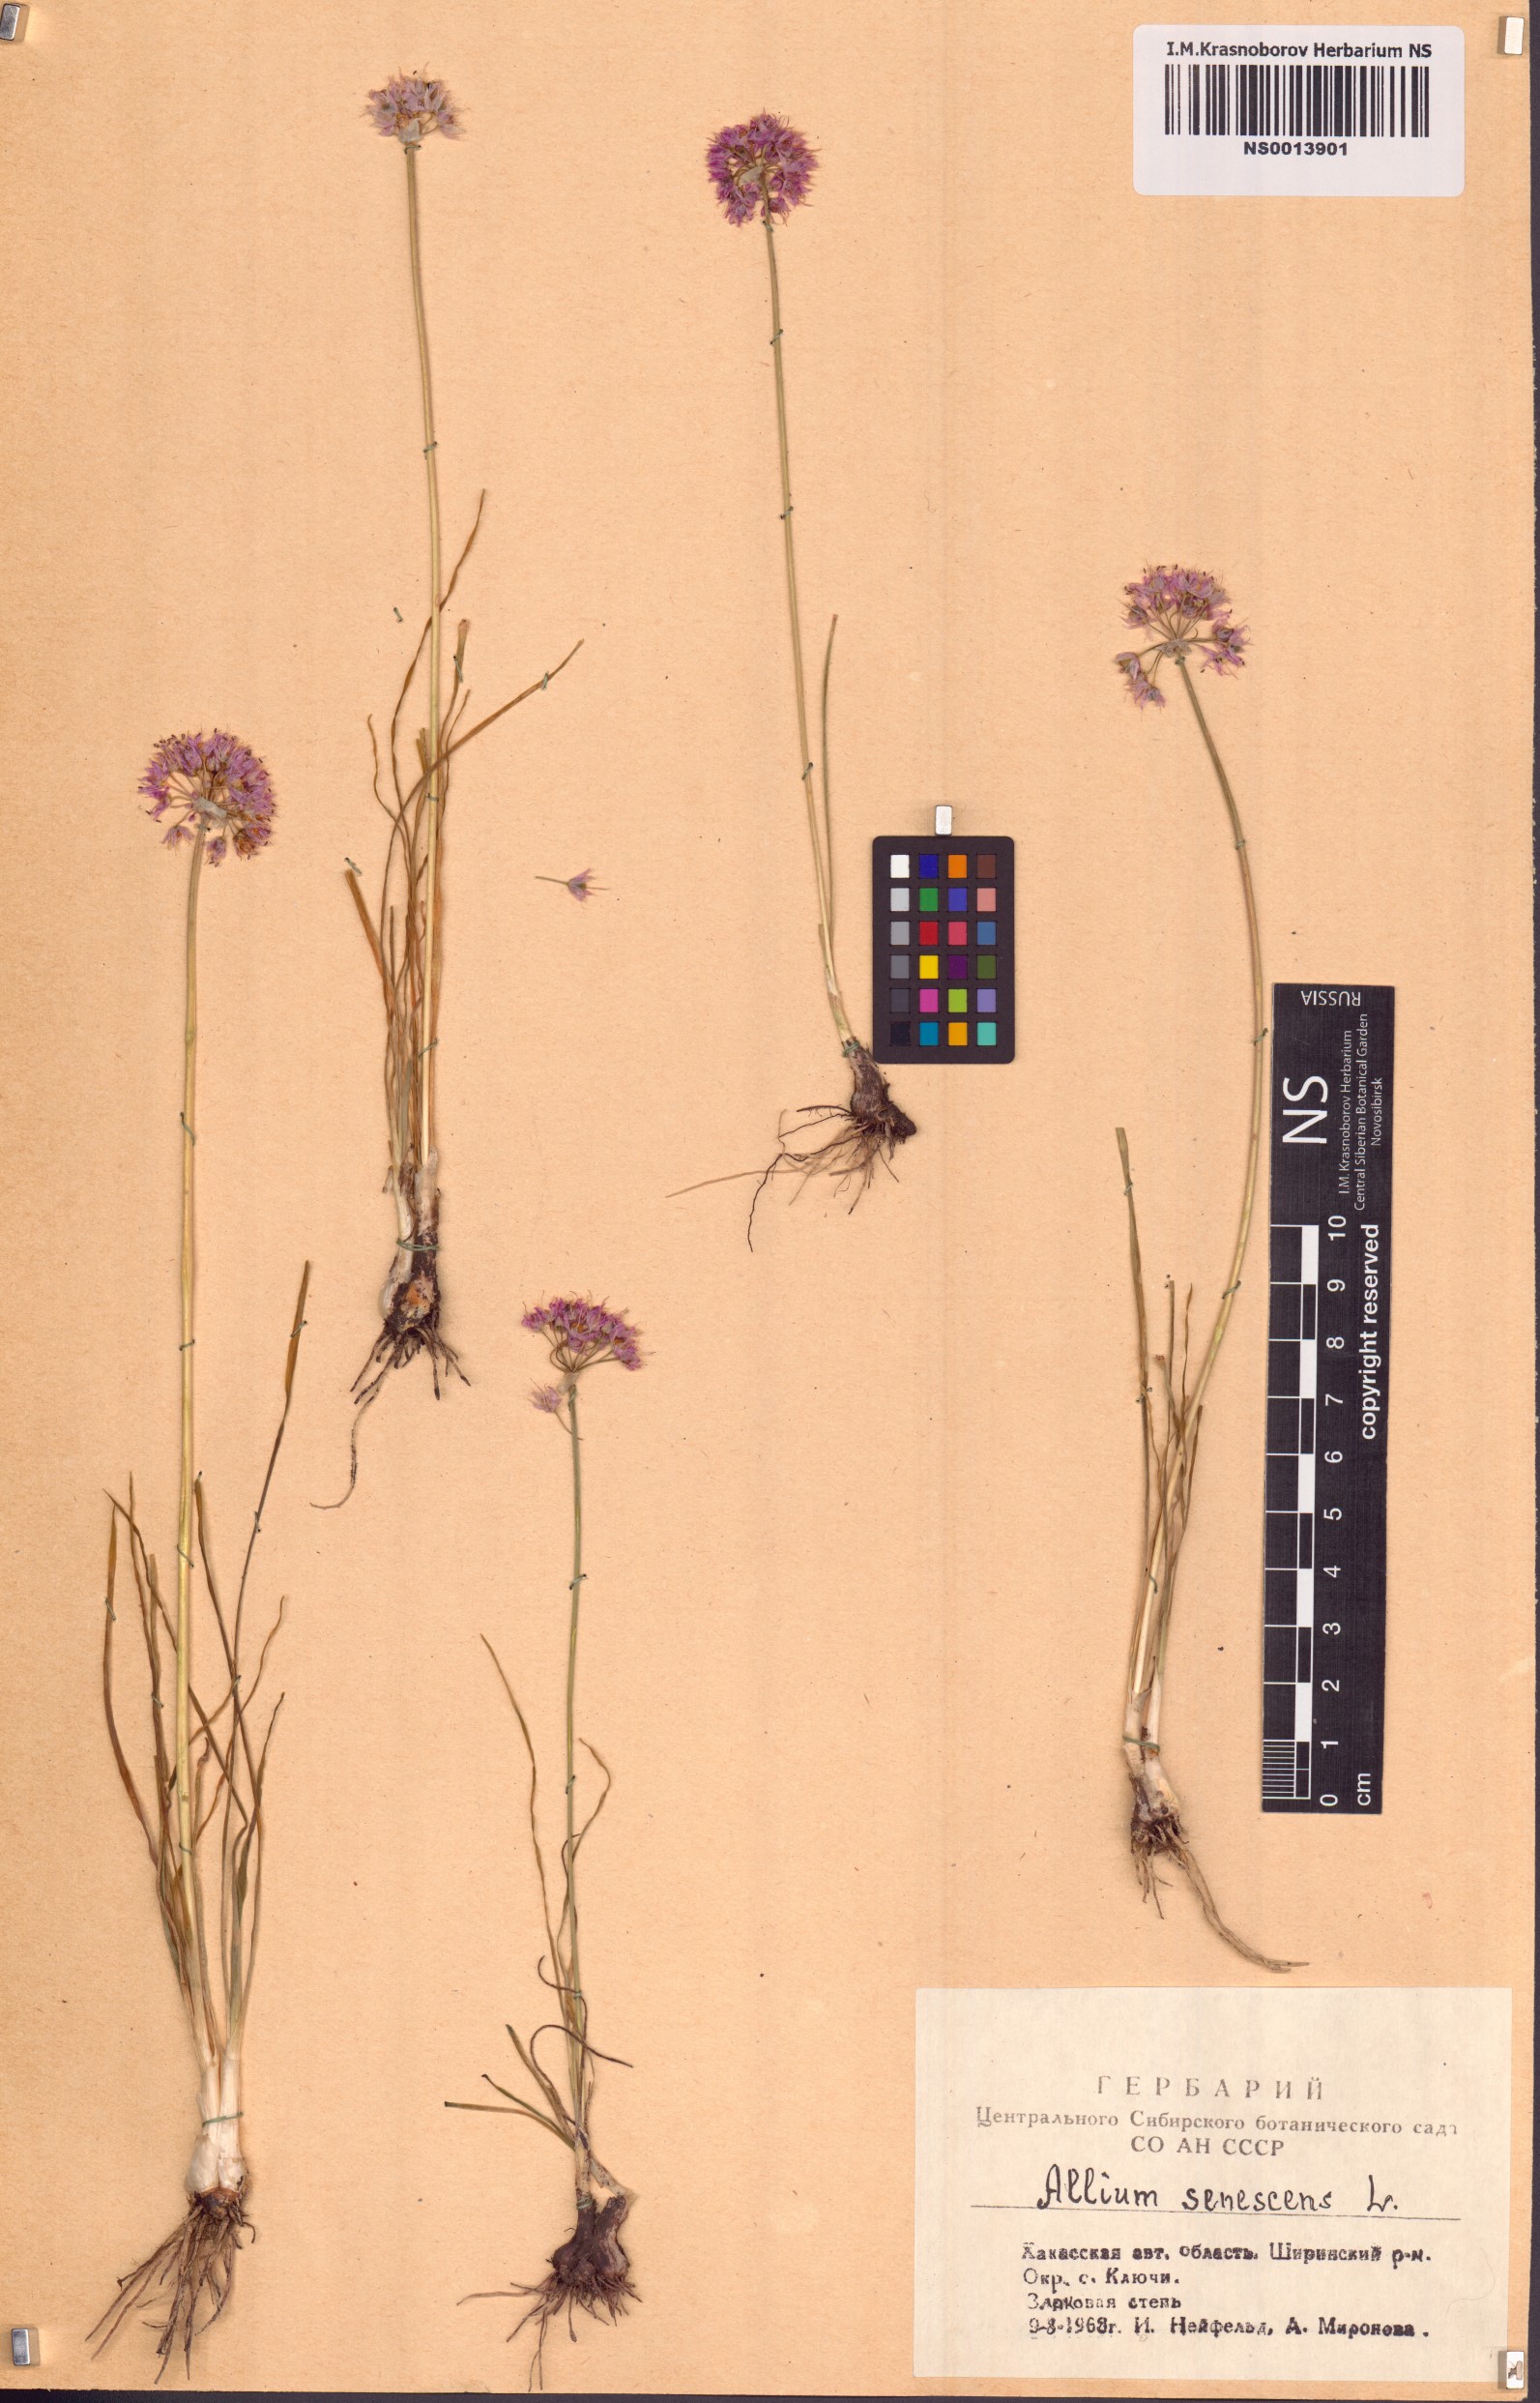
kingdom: Plantae
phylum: Tracheophyta
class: Liliopsida
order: Asparagales
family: Amaryllidaceae
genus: Allium
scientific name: Allium senescens
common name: German garlic
